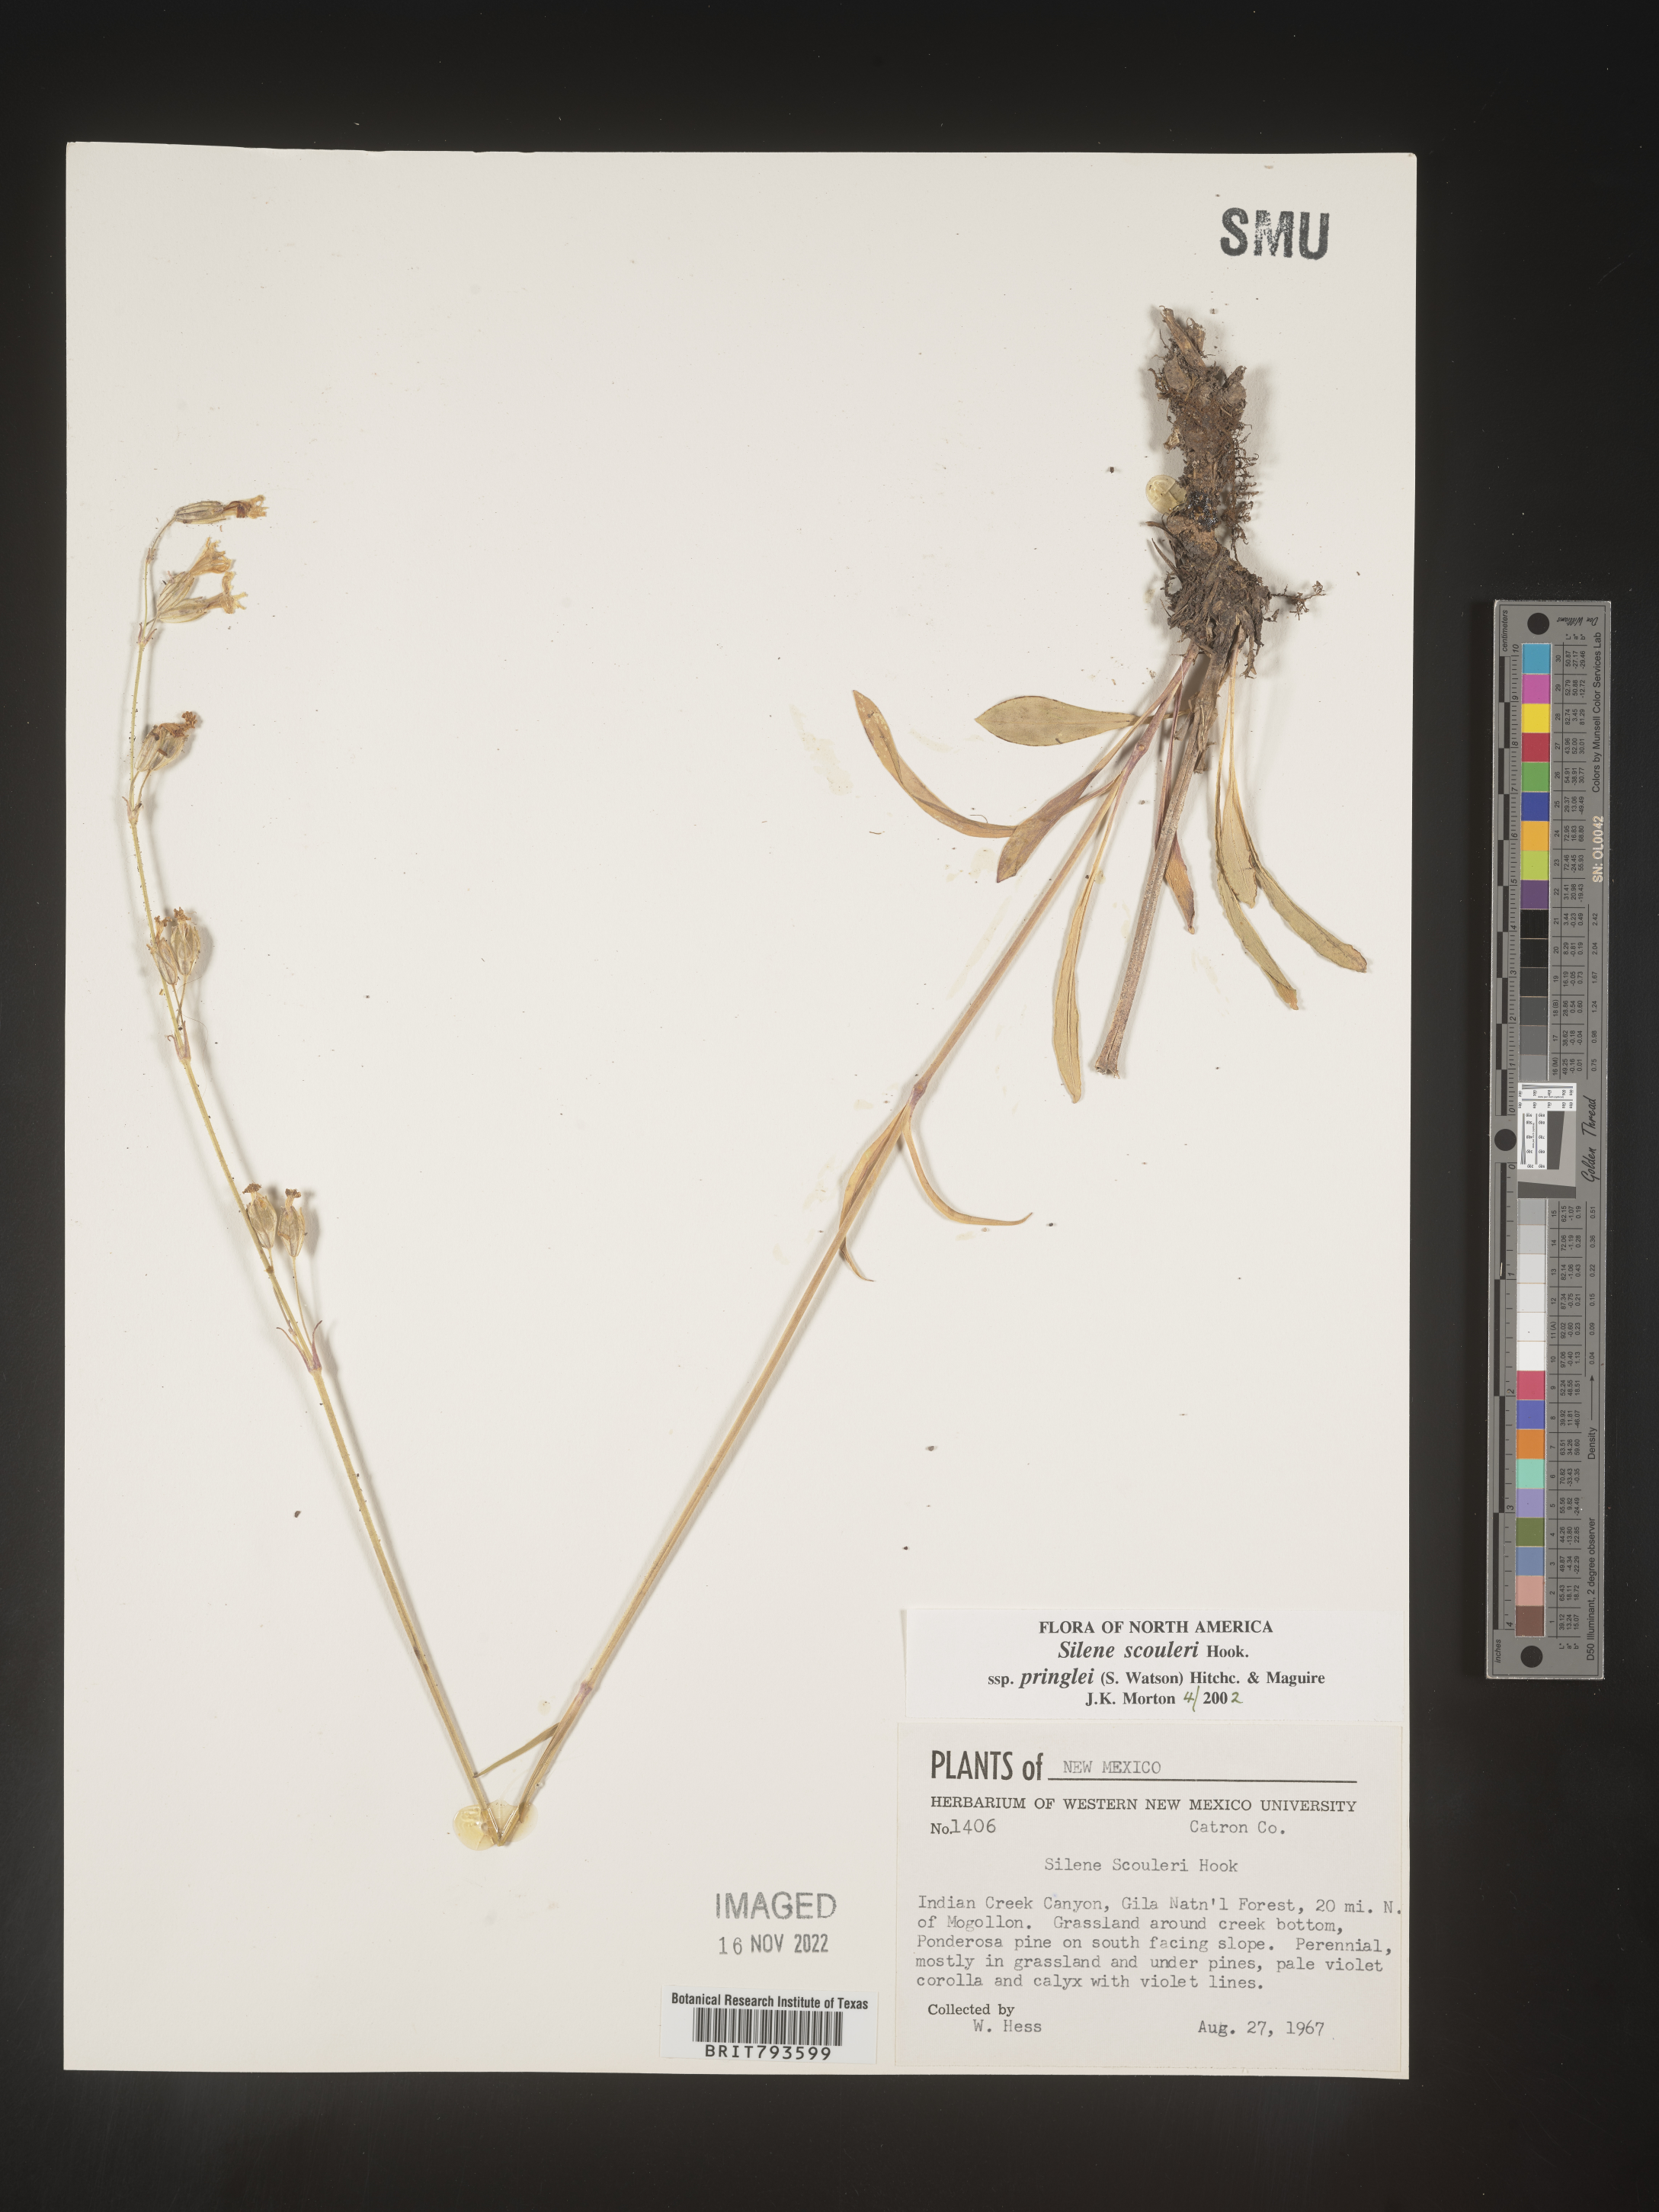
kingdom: Plantae
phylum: Tracheophyta
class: Magnoliopsida
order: Caryophyllales
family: Caryophyllaceae
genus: Silene
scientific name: Silene scouleri
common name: Scouler's campion
